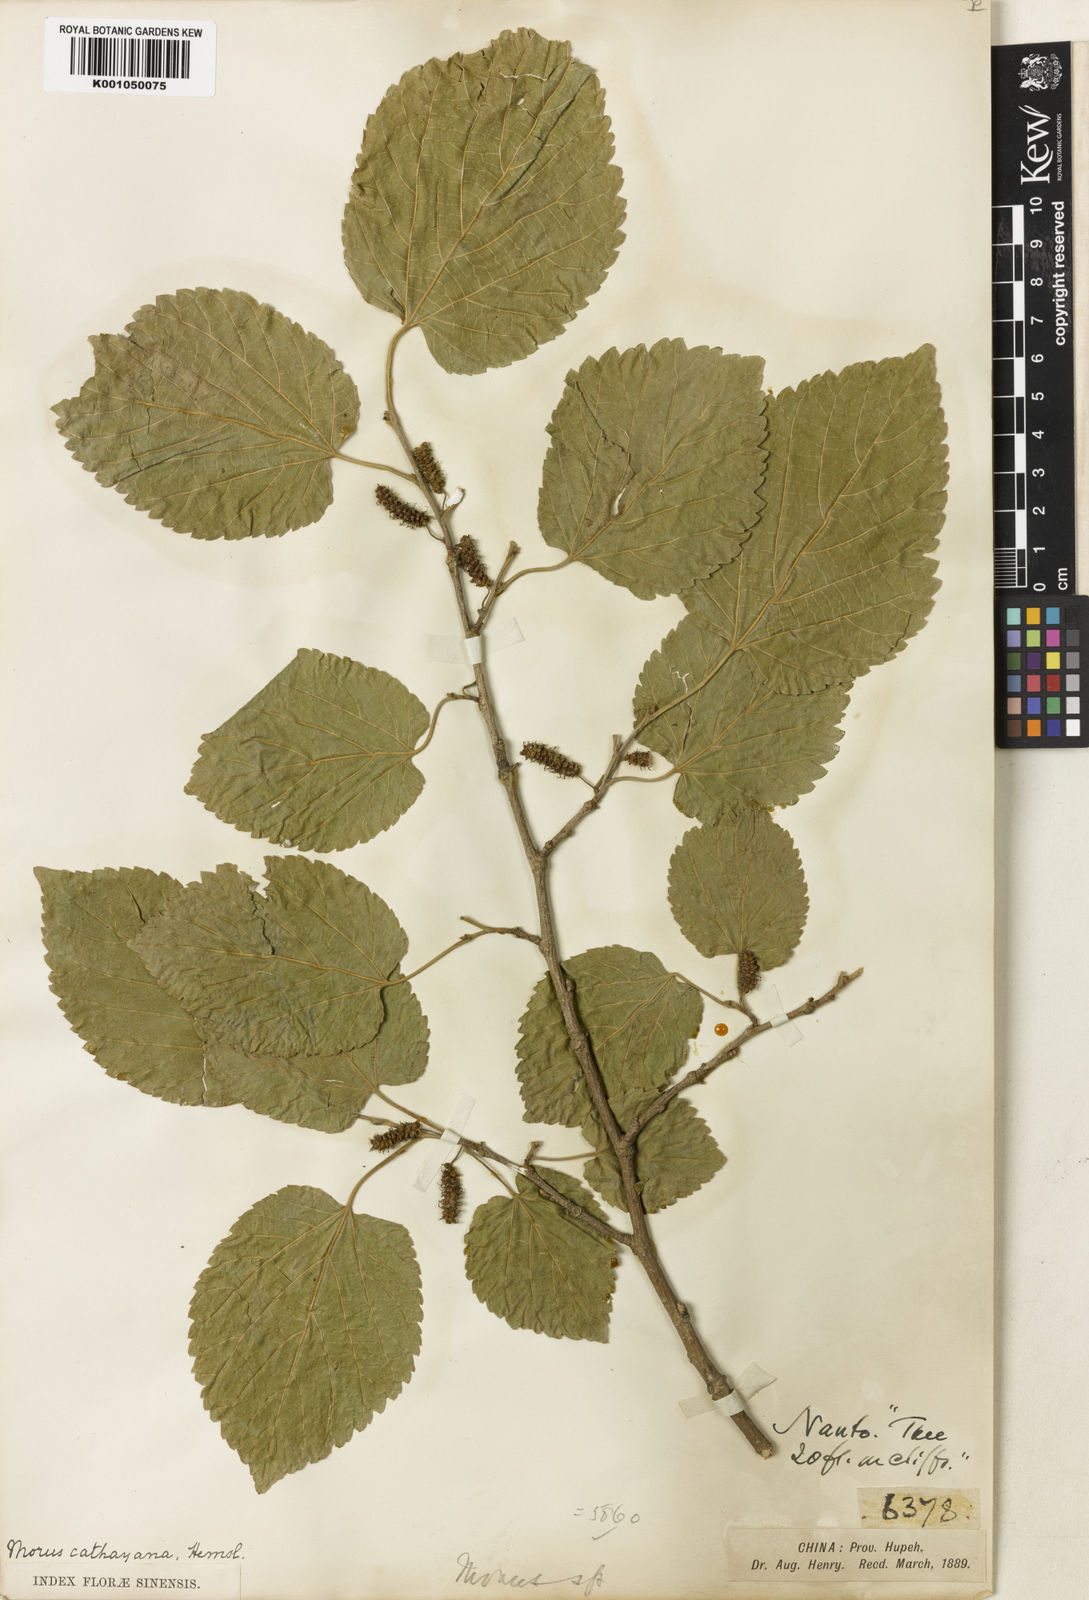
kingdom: Plantae
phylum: Tracheophyta
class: Magnoliopsida
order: Rosales
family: Moraceae
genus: Morus
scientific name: Morus cathayana
